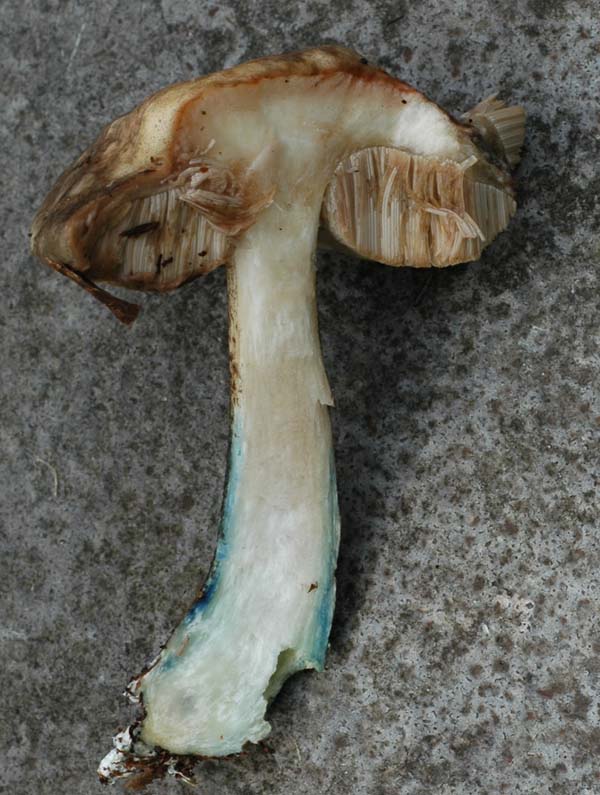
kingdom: Fungi
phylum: Basidiomycota
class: Agaricomycetes
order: Boletales
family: Boletaceae
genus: Leccinum
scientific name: Leccinum variicolor
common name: flammet skælrørhat
